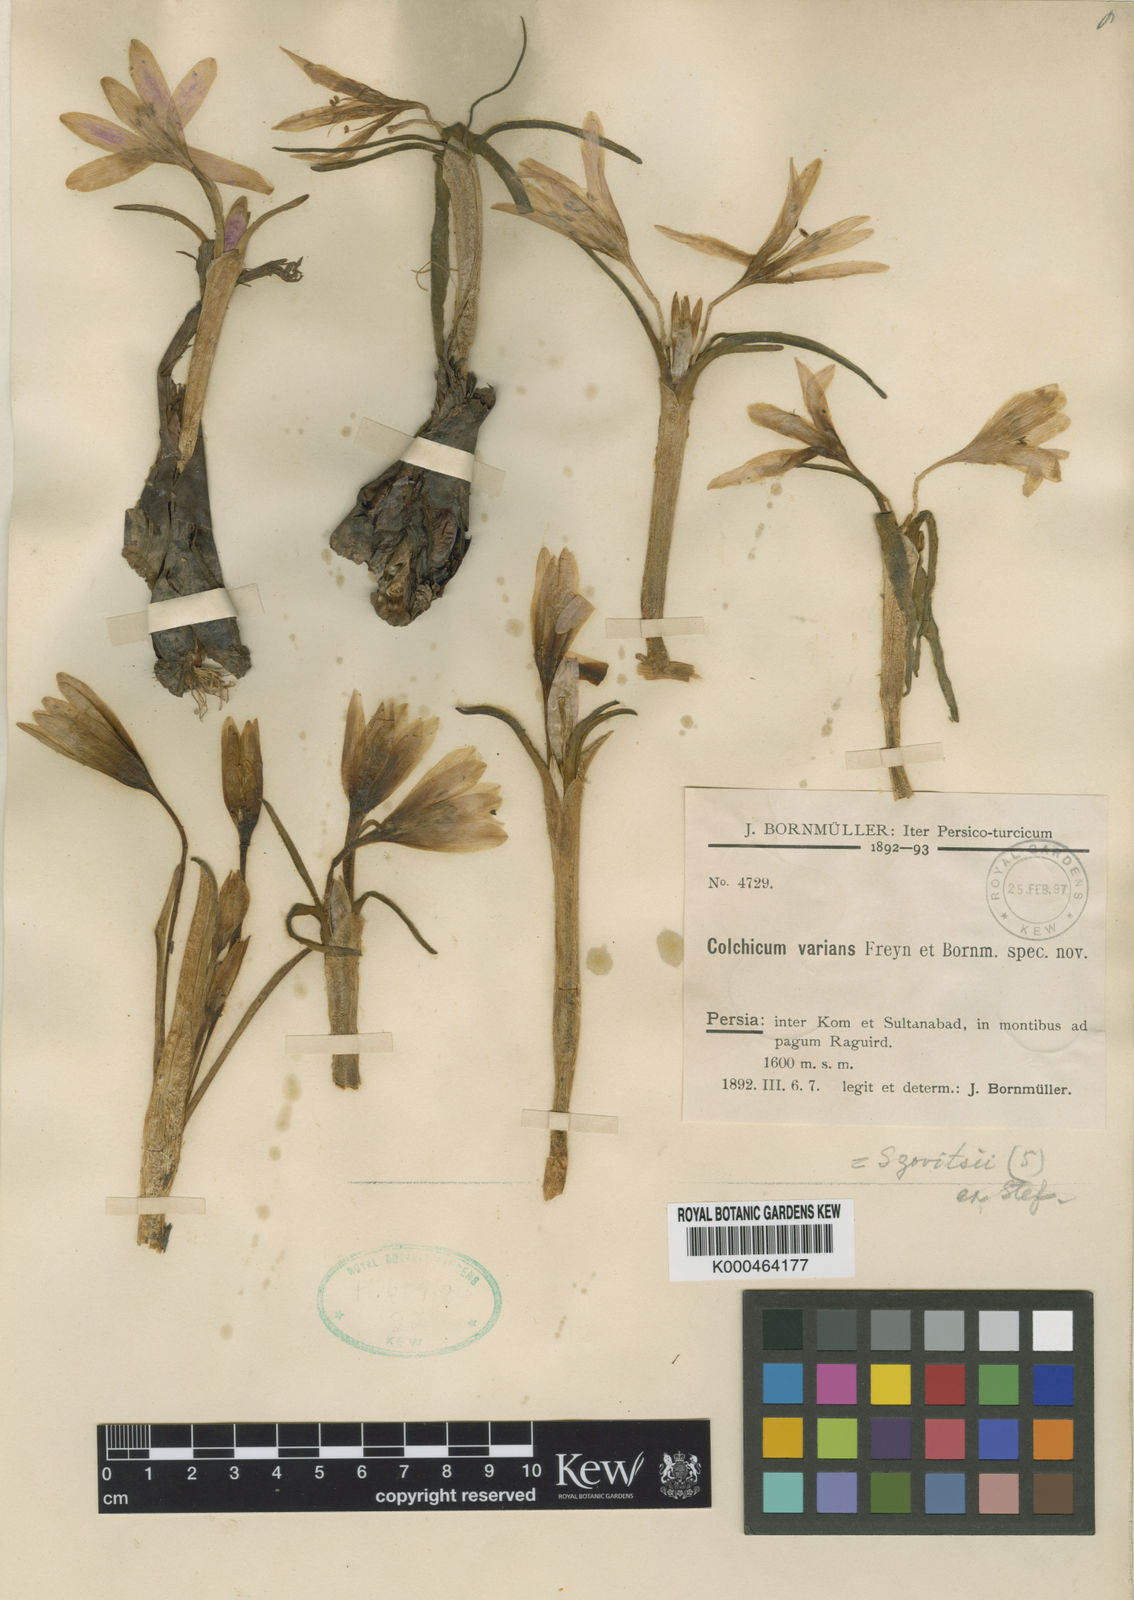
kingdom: Plantae
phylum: Tracheophyta
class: Liliopsida
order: Liliales
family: Colchicaceae
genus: Colchicum
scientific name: Colchicum varians
